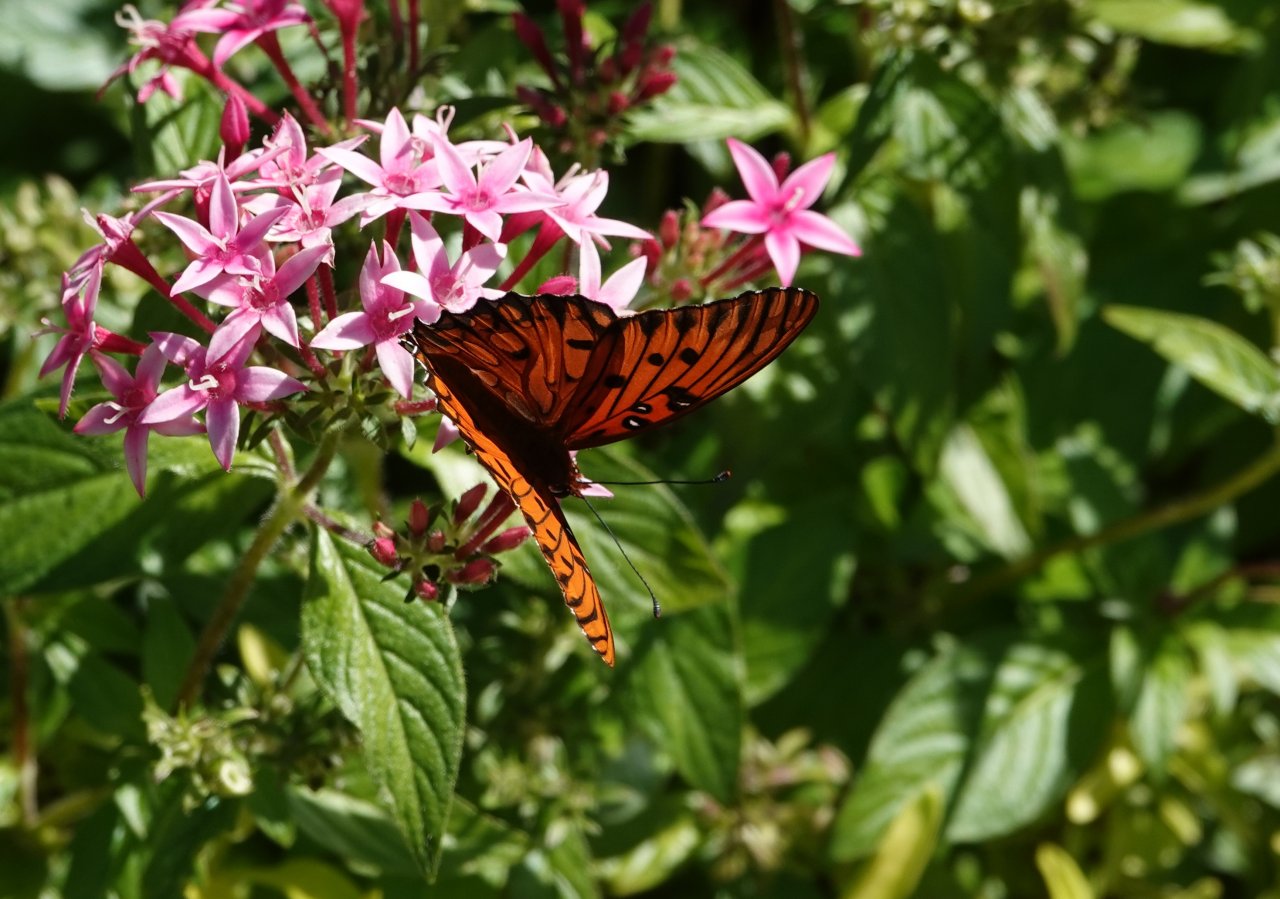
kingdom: Animalia
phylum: Arthropoda
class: Insecta
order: Lepidoptera
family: Nymphalidae
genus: Dione
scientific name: Dione vanillae
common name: Gulf Fritillary
